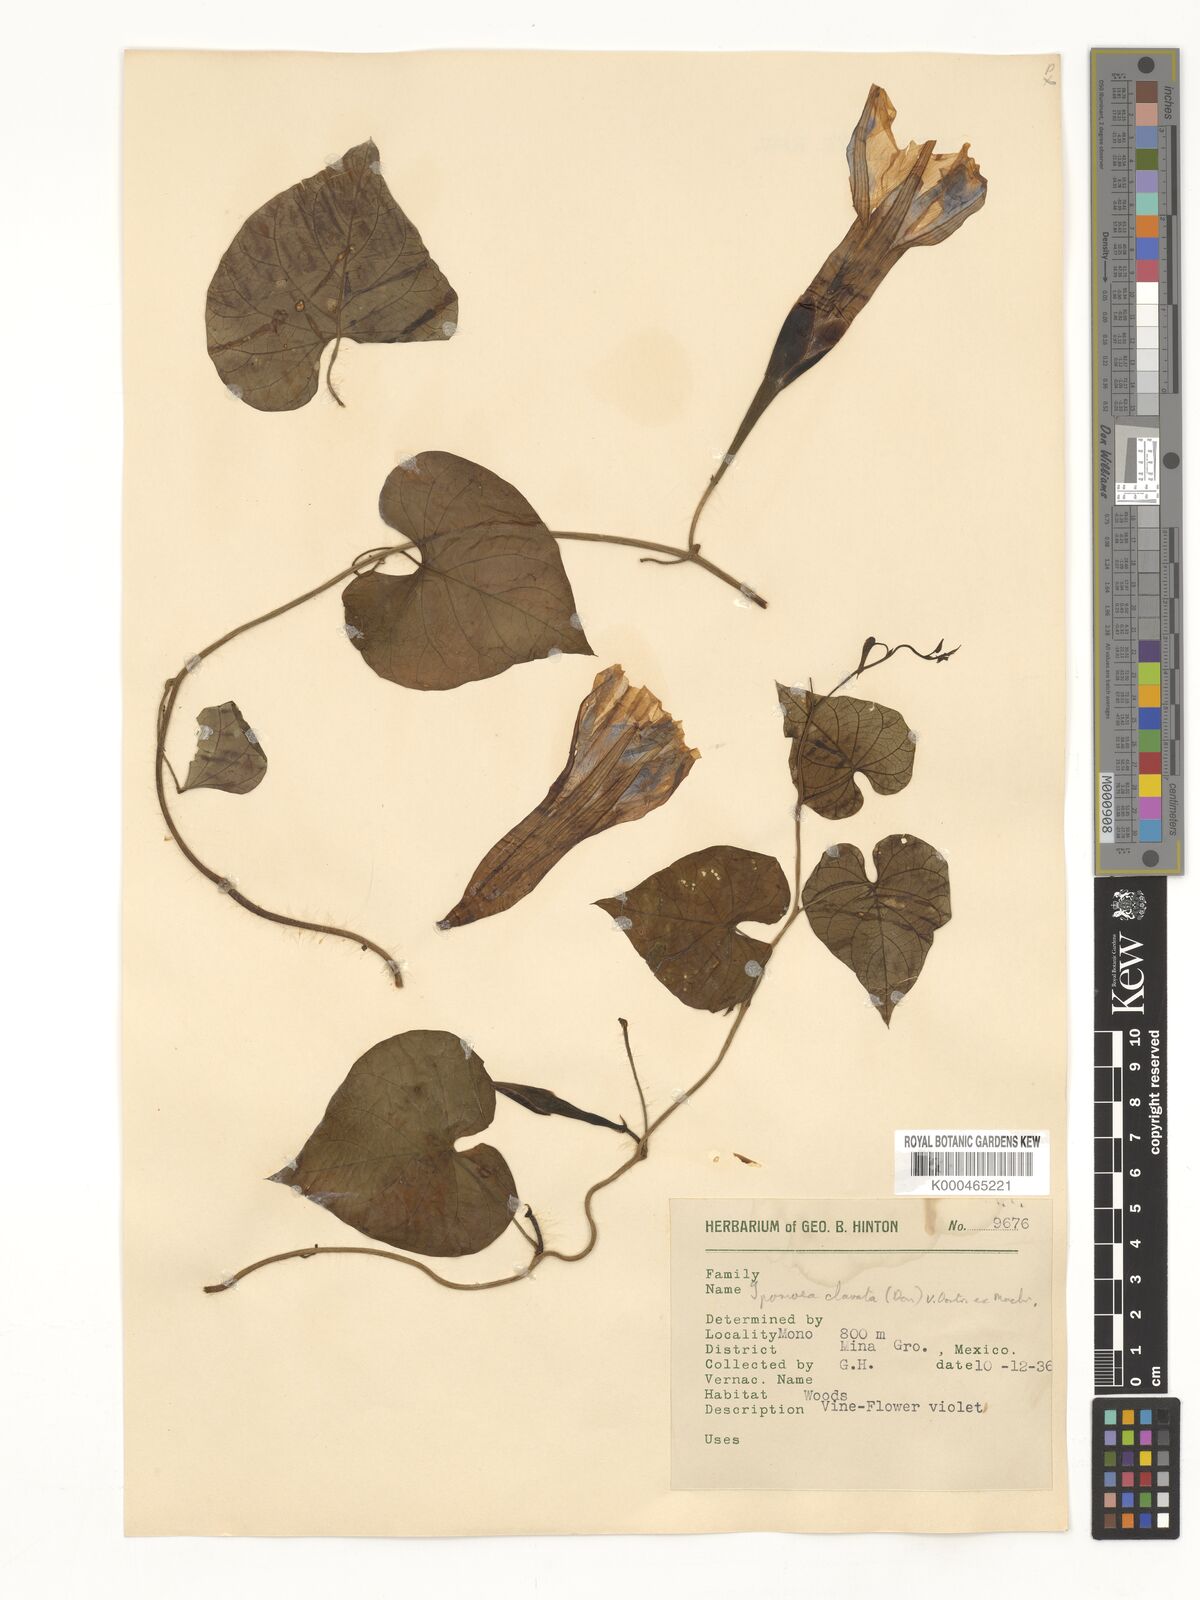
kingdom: Plantae
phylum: Tracheophyta
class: Magnoliopsida
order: Solanales
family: Convolvulaceae
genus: Ipomoea
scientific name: Ipomoea clavata
